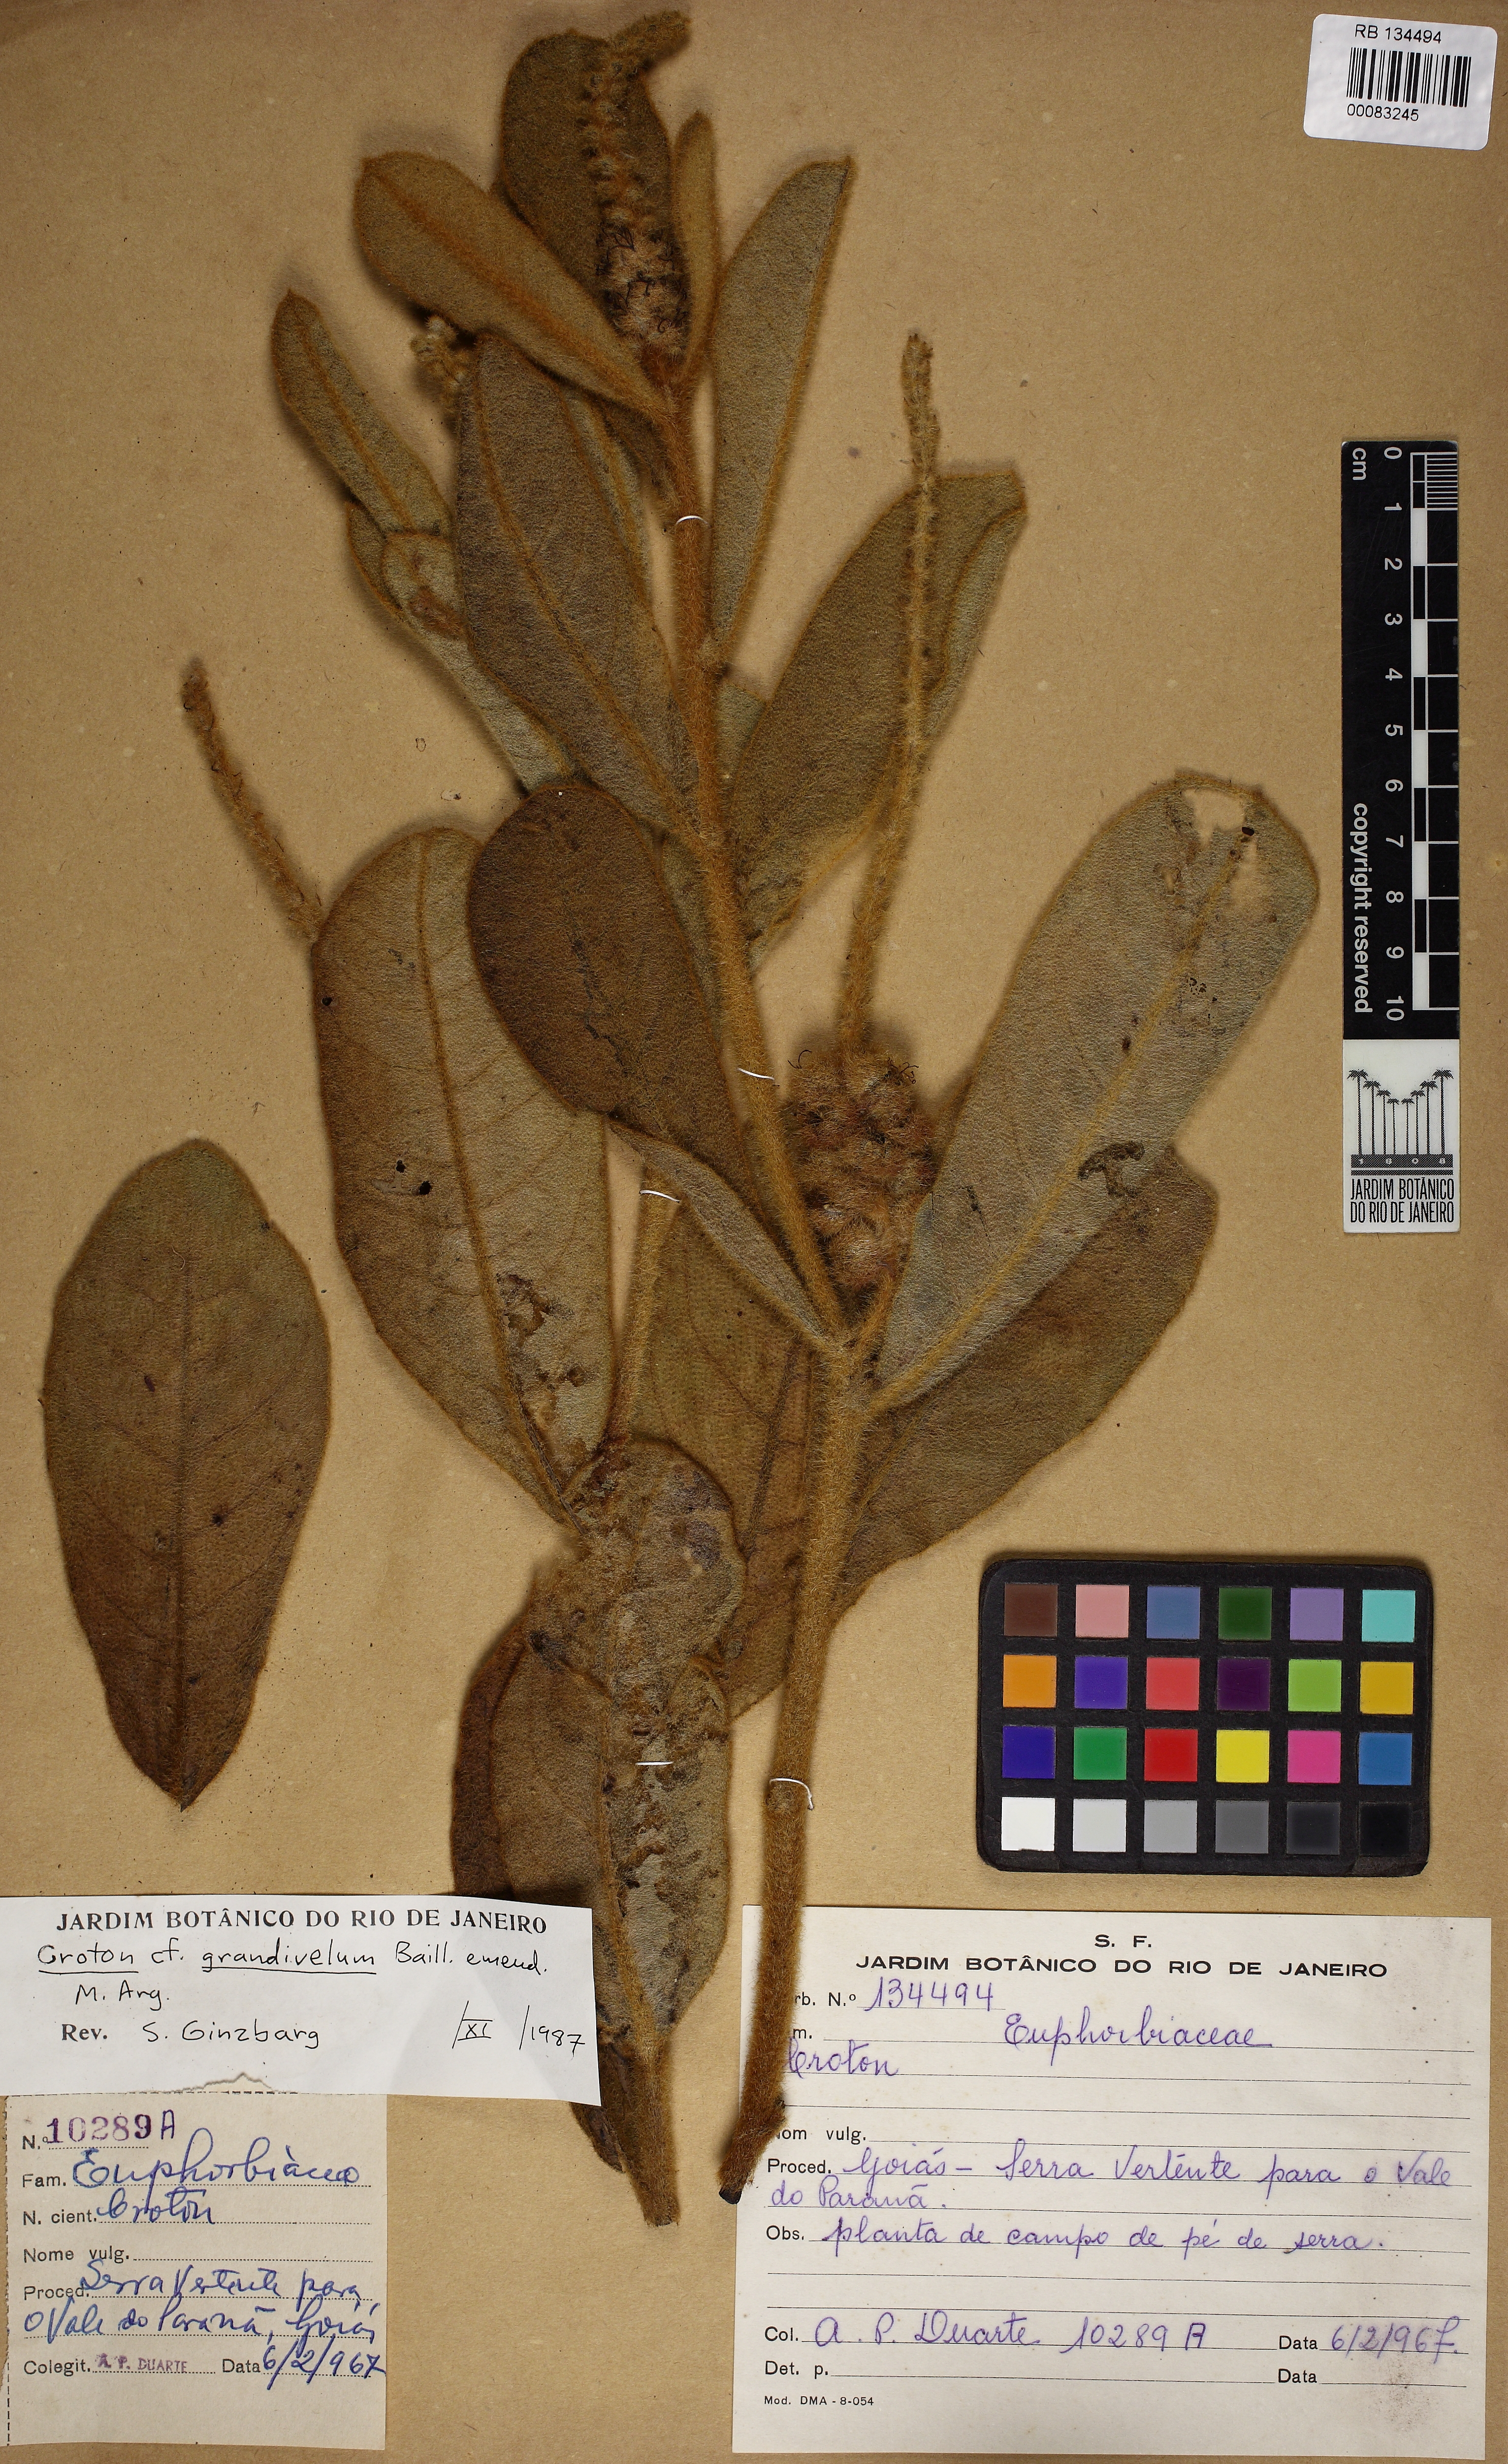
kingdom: Plantae
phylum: Tracheophyta
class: Magnoliopsida
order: Malpighiales
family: Euphorbiaceae
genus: Croton
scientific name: Croton grandivelum
